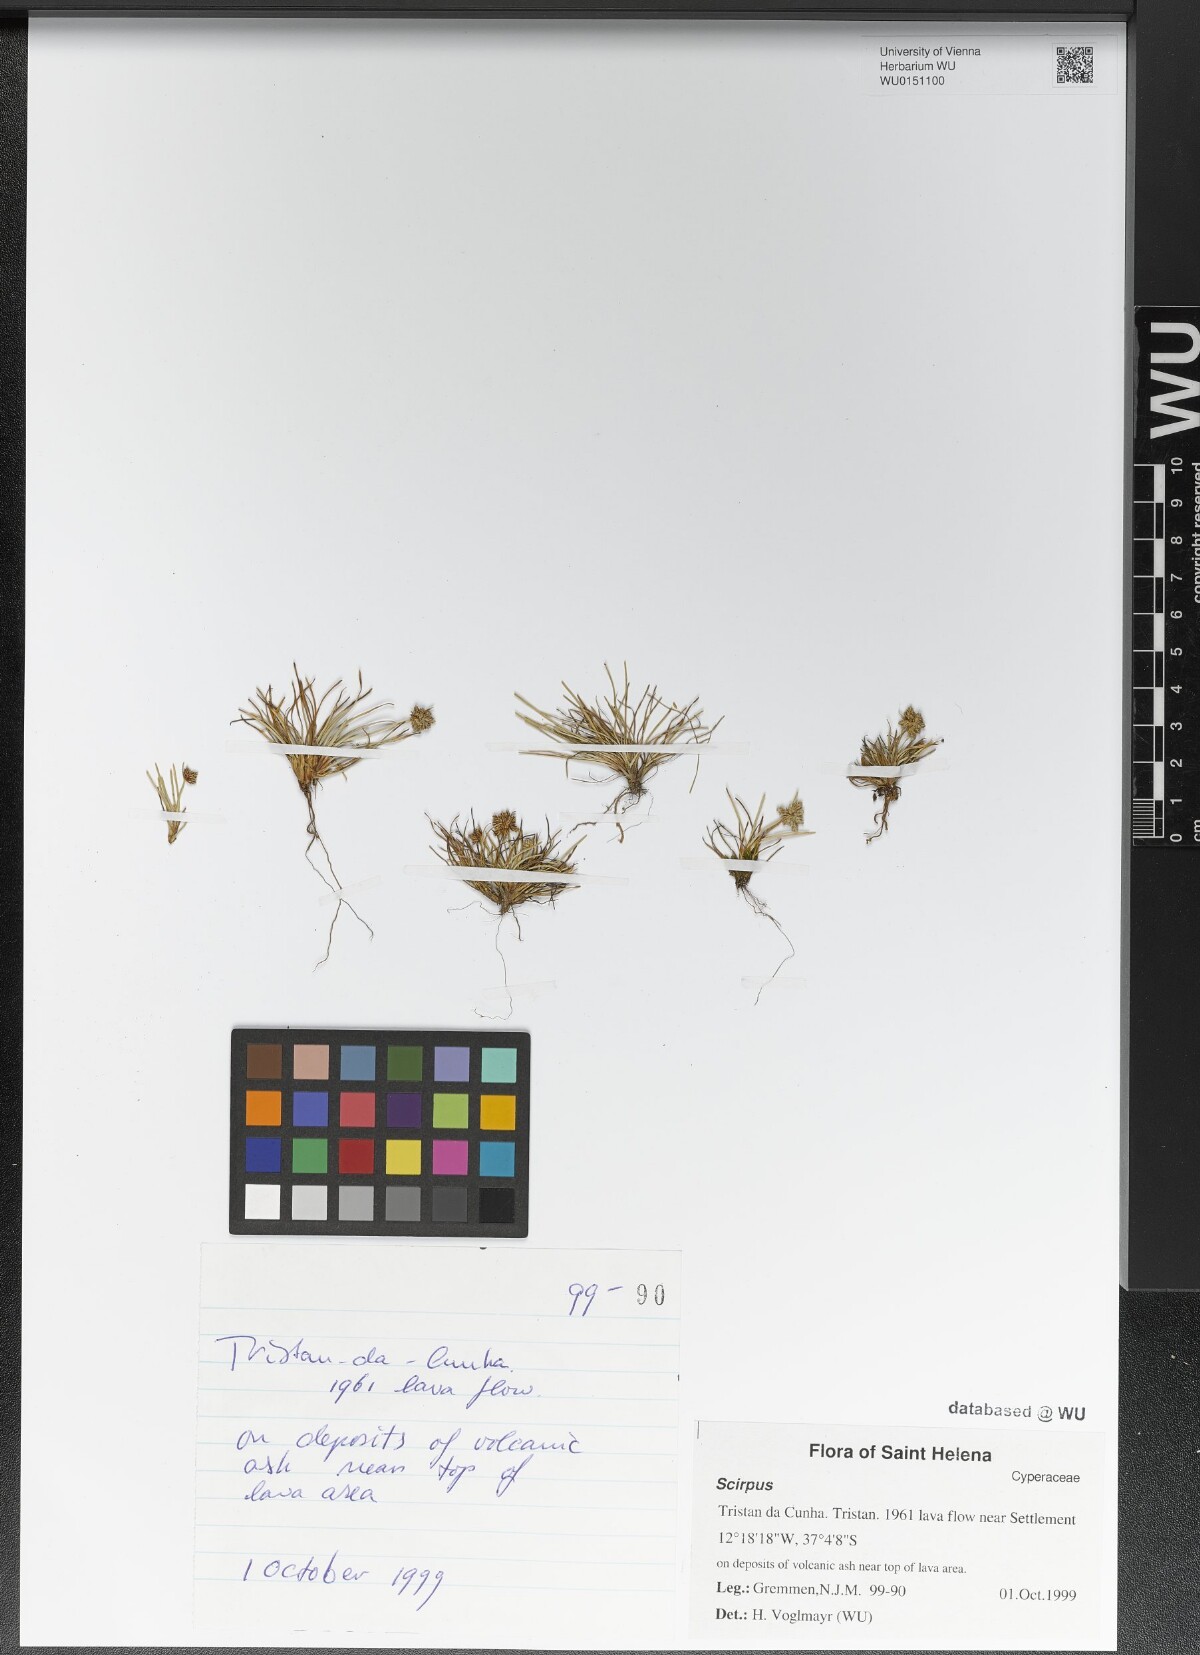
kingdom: Plantae
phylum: Tracheophyta
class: Liliopsida
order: Poales
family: Cyperaceae
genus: Scirpus
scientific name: Scirpus
